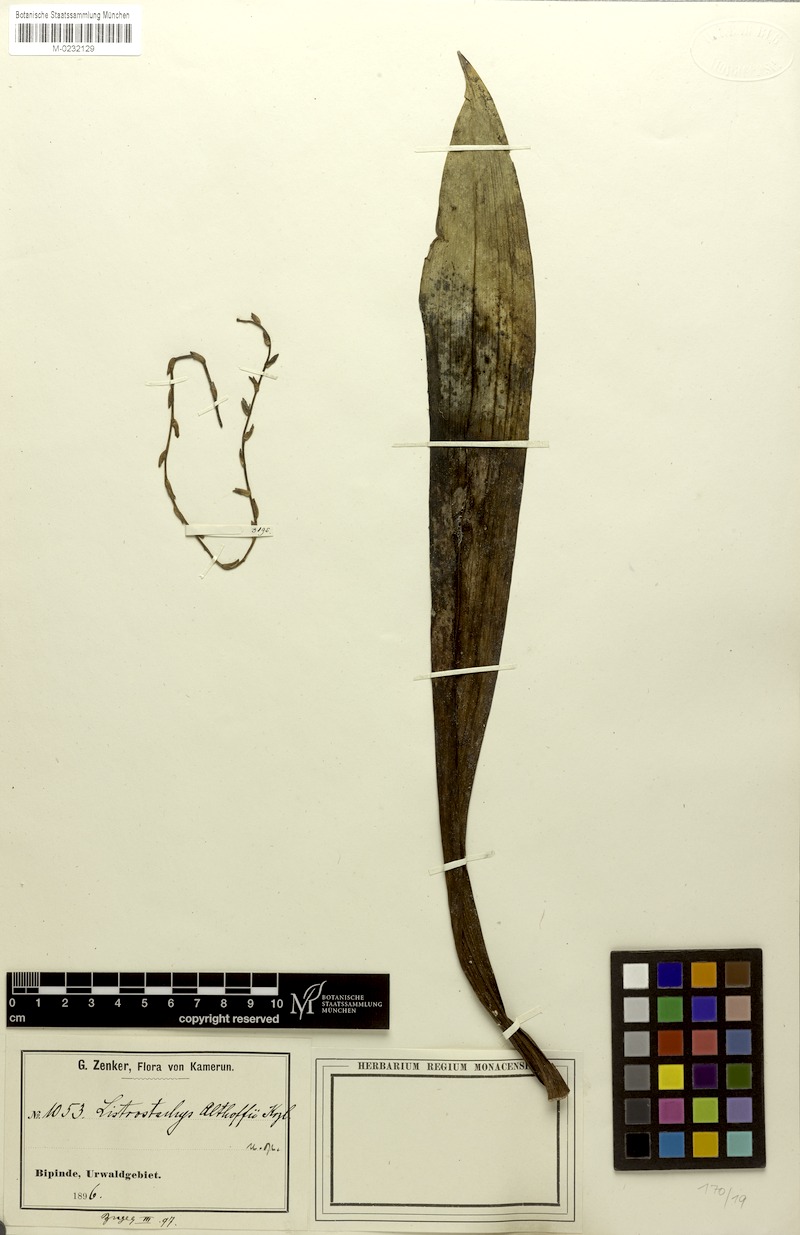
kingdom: Plantae
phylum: Tracheophyta
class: Liliopsida
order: Asparagales
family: Orchidaceae
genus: Diaphananthe
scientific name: Diaphananthe pellucida
